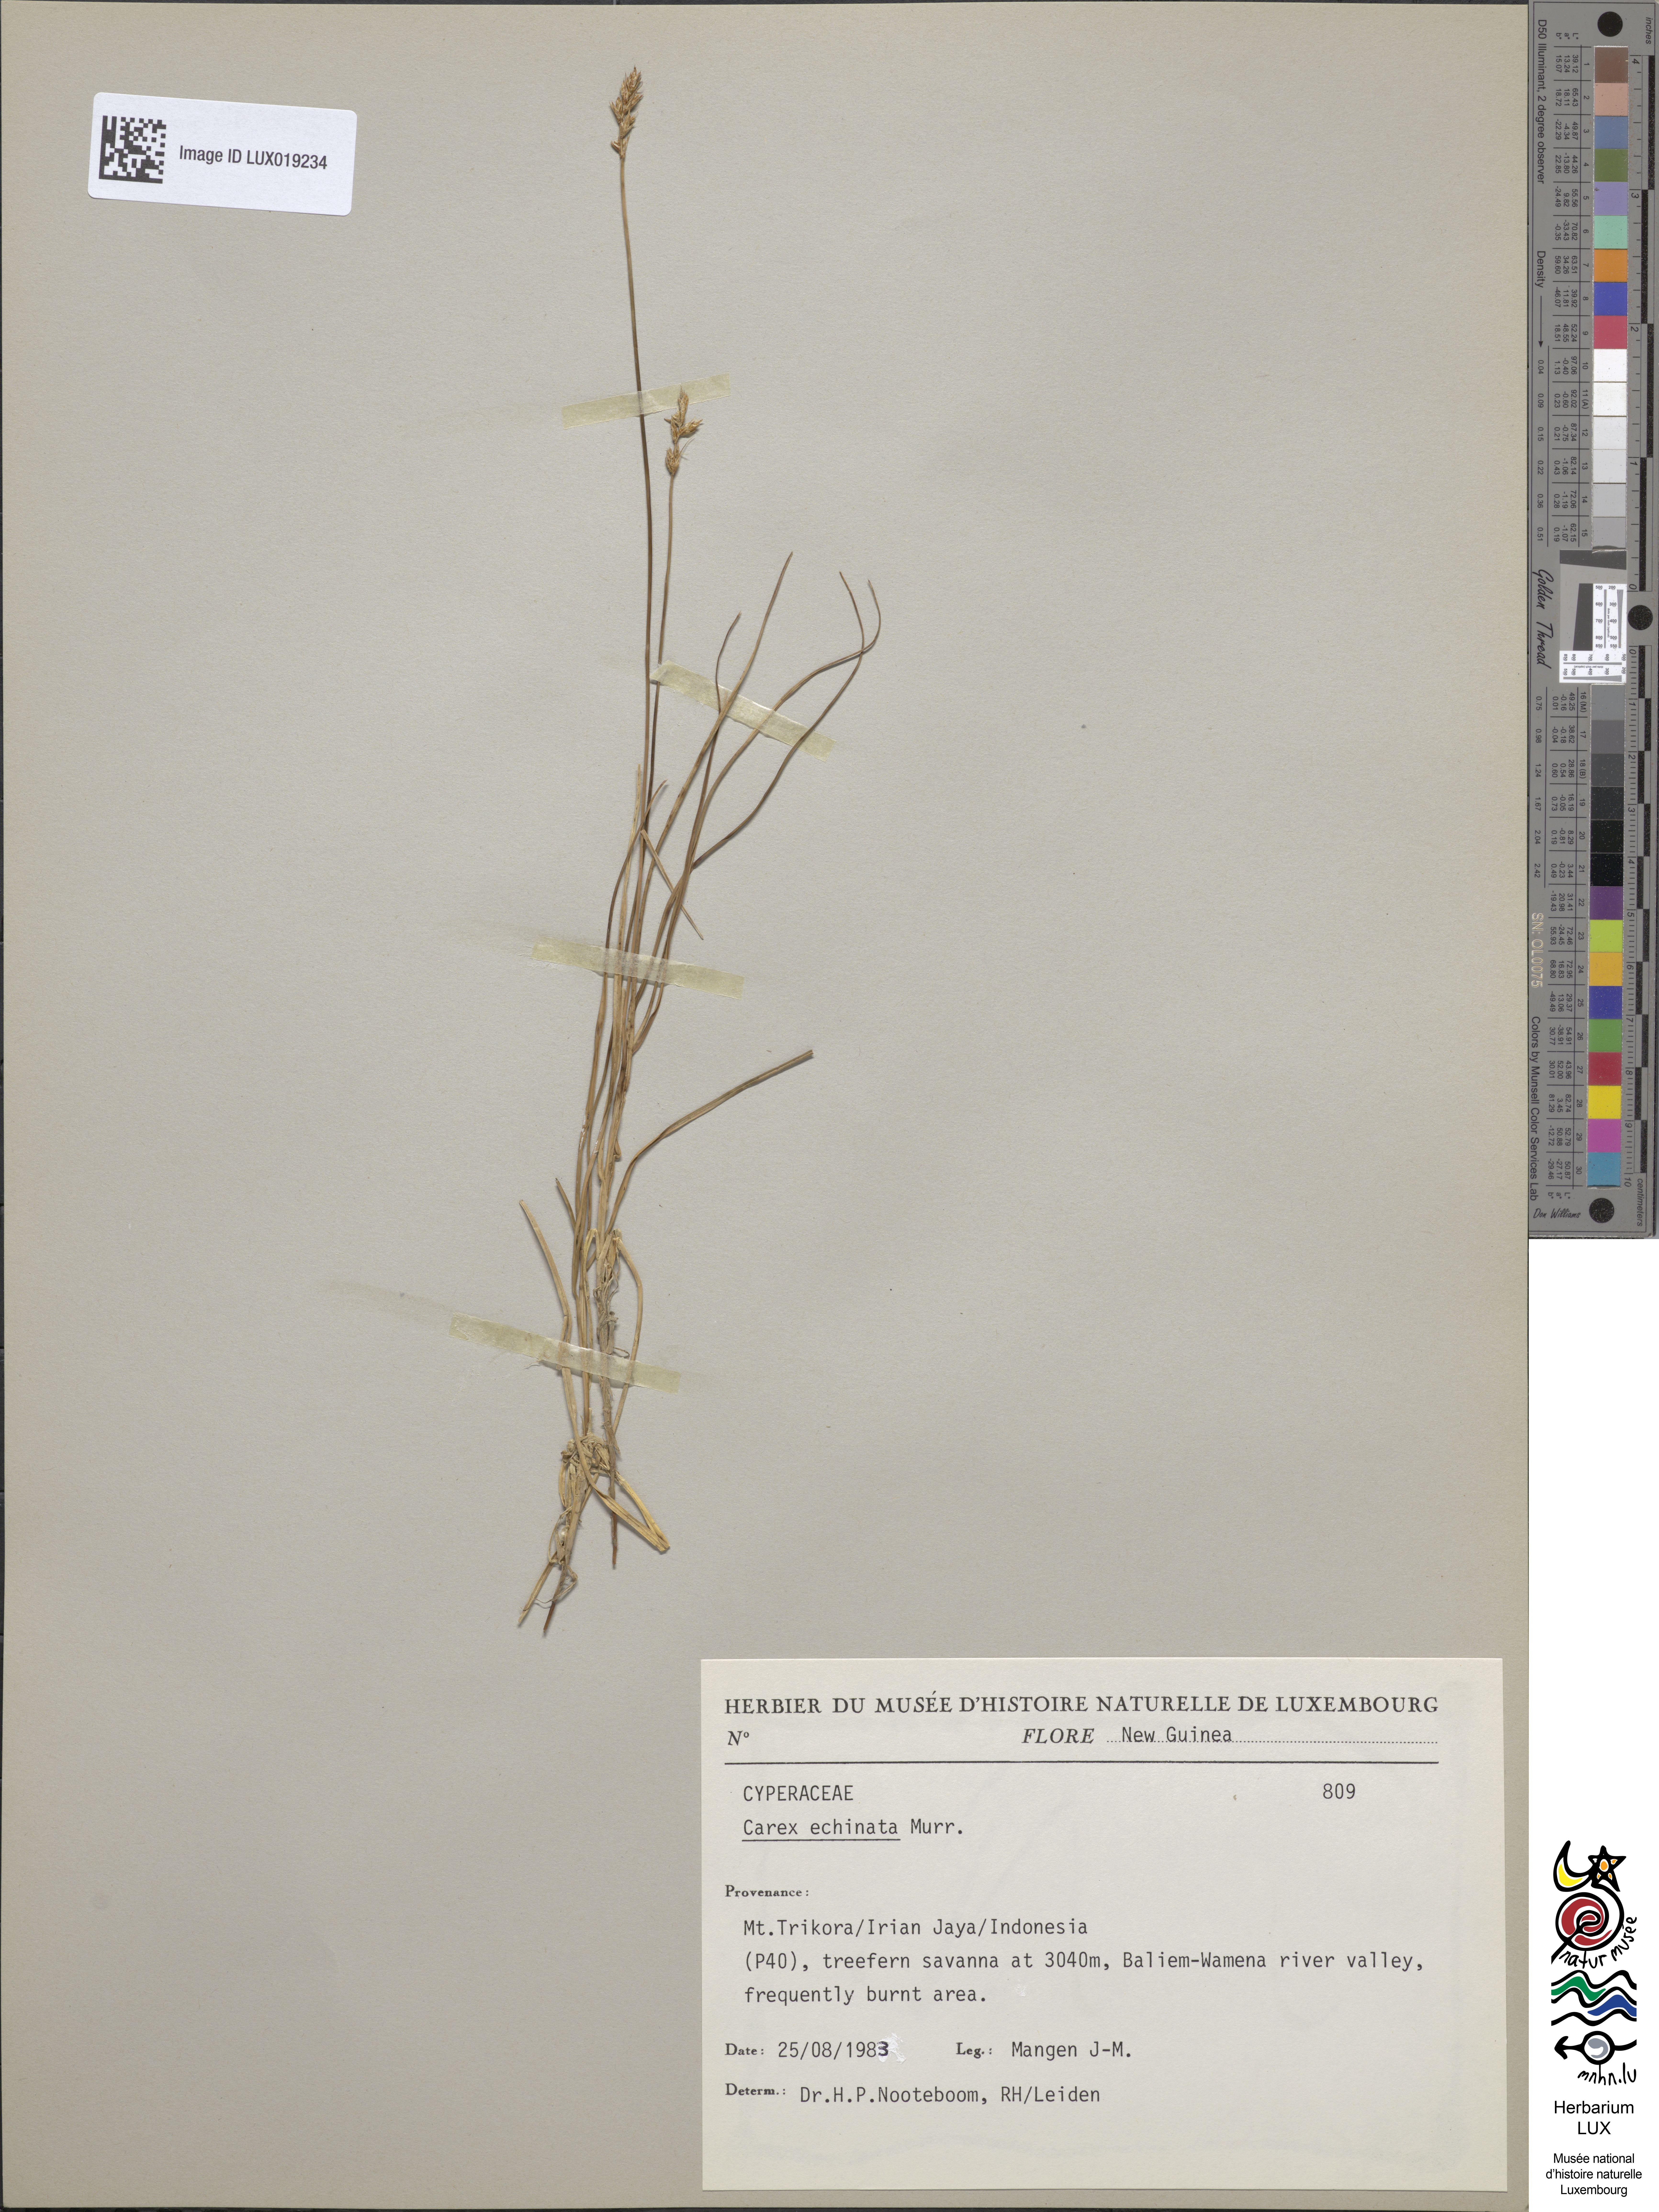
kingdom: Plantae
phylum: Tracheophyta
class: Liliopsida
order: Poales
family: Cyperaceae
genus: Carex
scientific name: Carex echinata
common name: Star sedge
